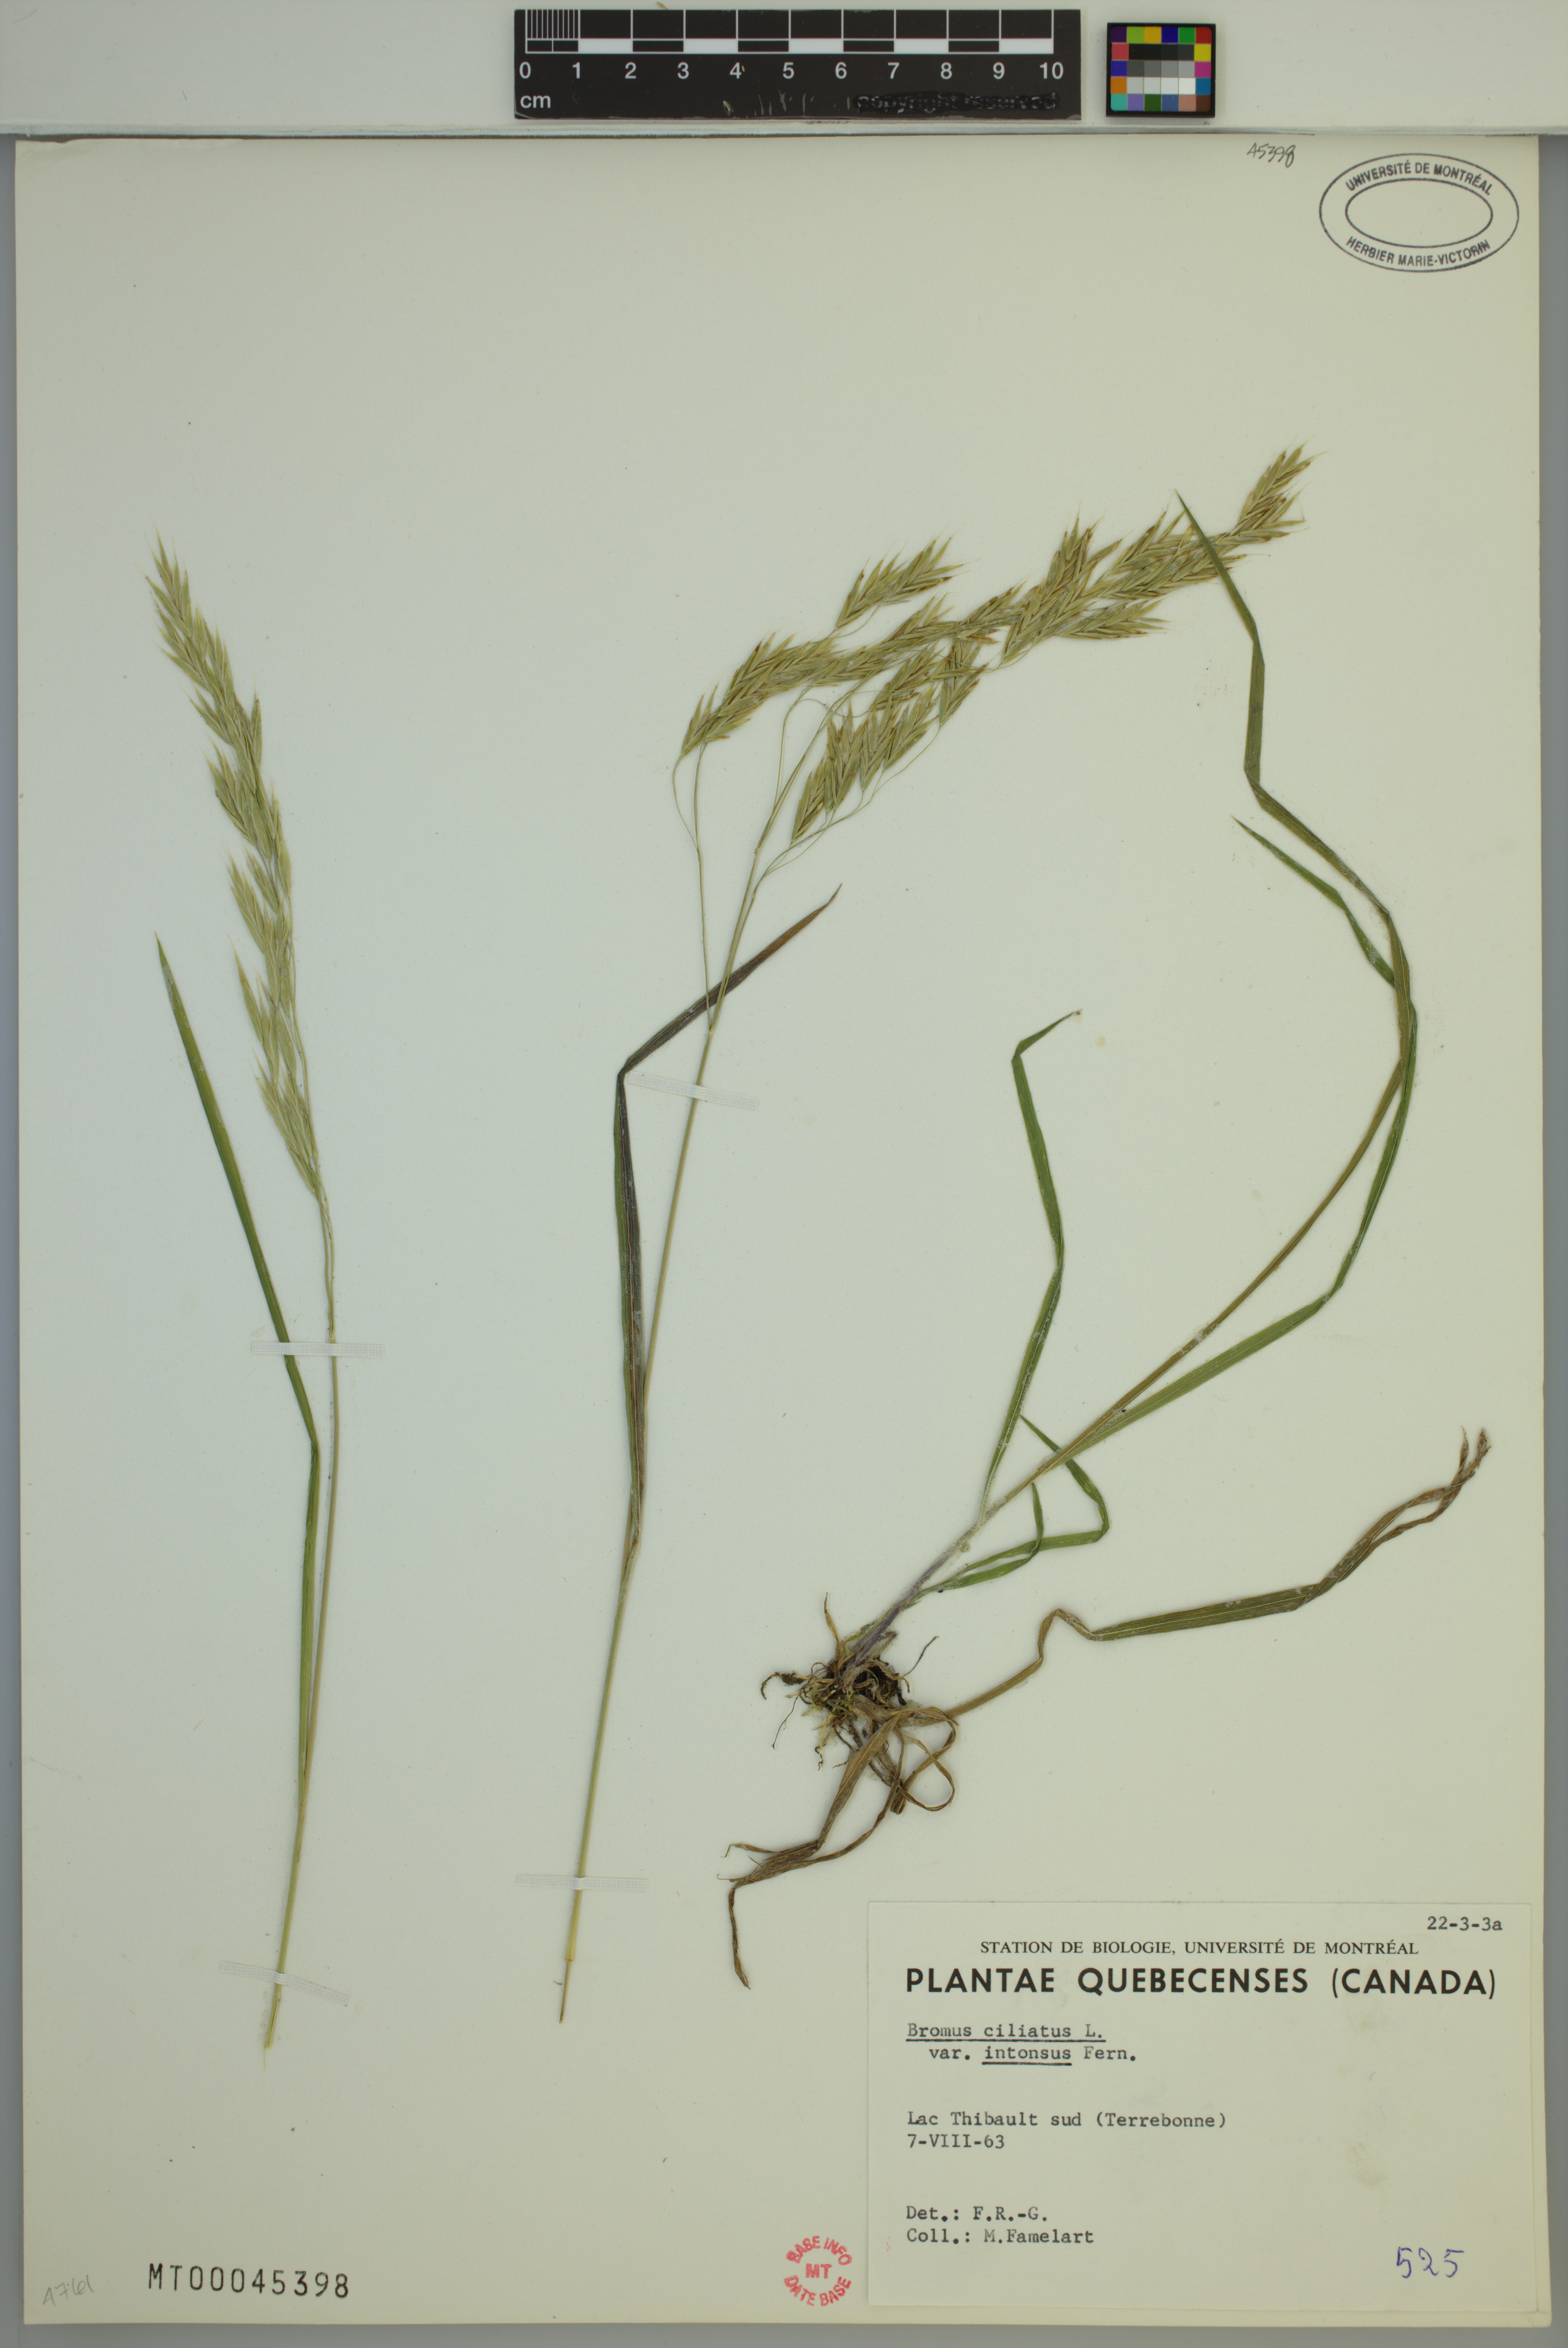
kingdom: Plantae
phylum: Tracheophyta
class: Liliopsida
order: Poales
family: Poaceae
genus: Bromus
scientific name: Bromus ciliatus
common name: Fringe brome
